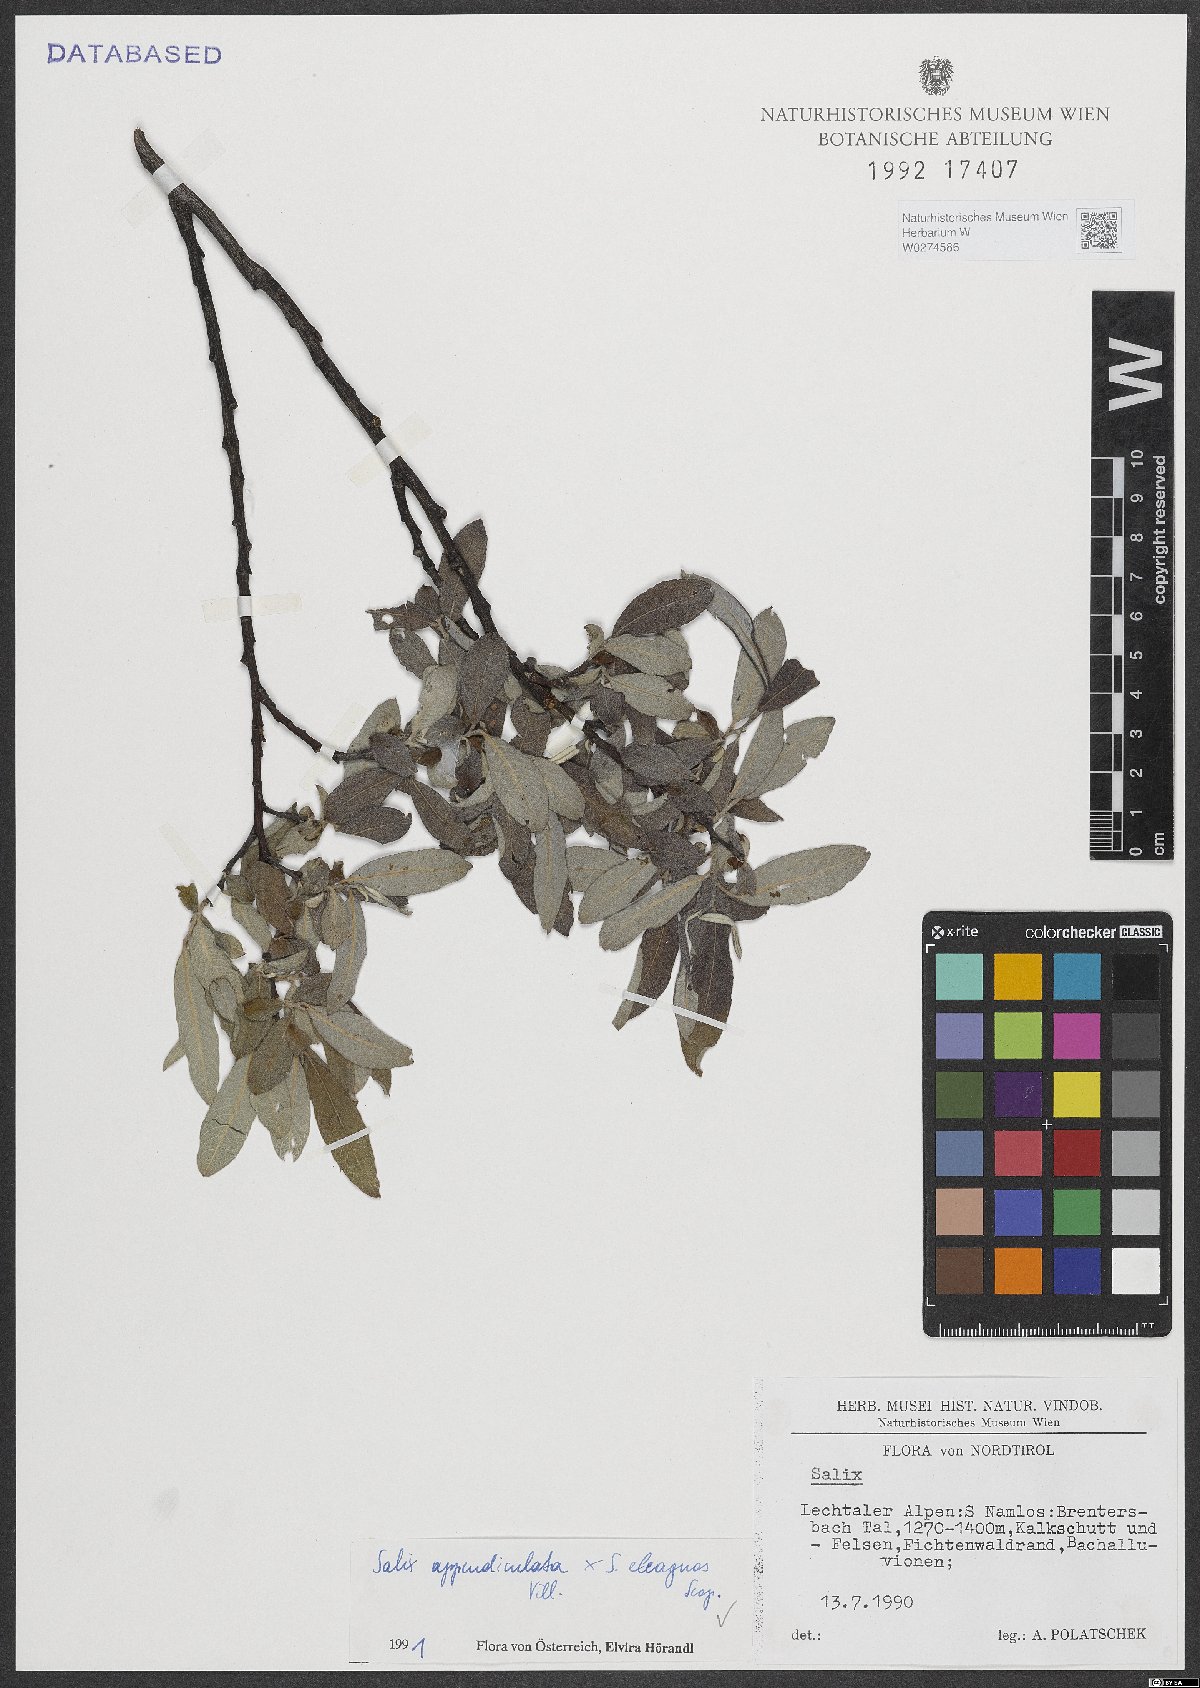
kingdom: Plantae
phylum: Tracheophyta
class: Magnoliopsida
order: Malpighiales
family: Salicaceae
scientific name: Salicaceae
